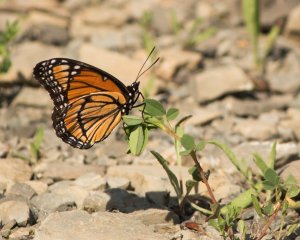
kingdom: Animalia
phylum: Arthropoda
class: Insecta
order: Lepidoptera
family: Nymphalidae
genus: Limenitis
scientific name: Limenitis archippus
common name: Viceroy
